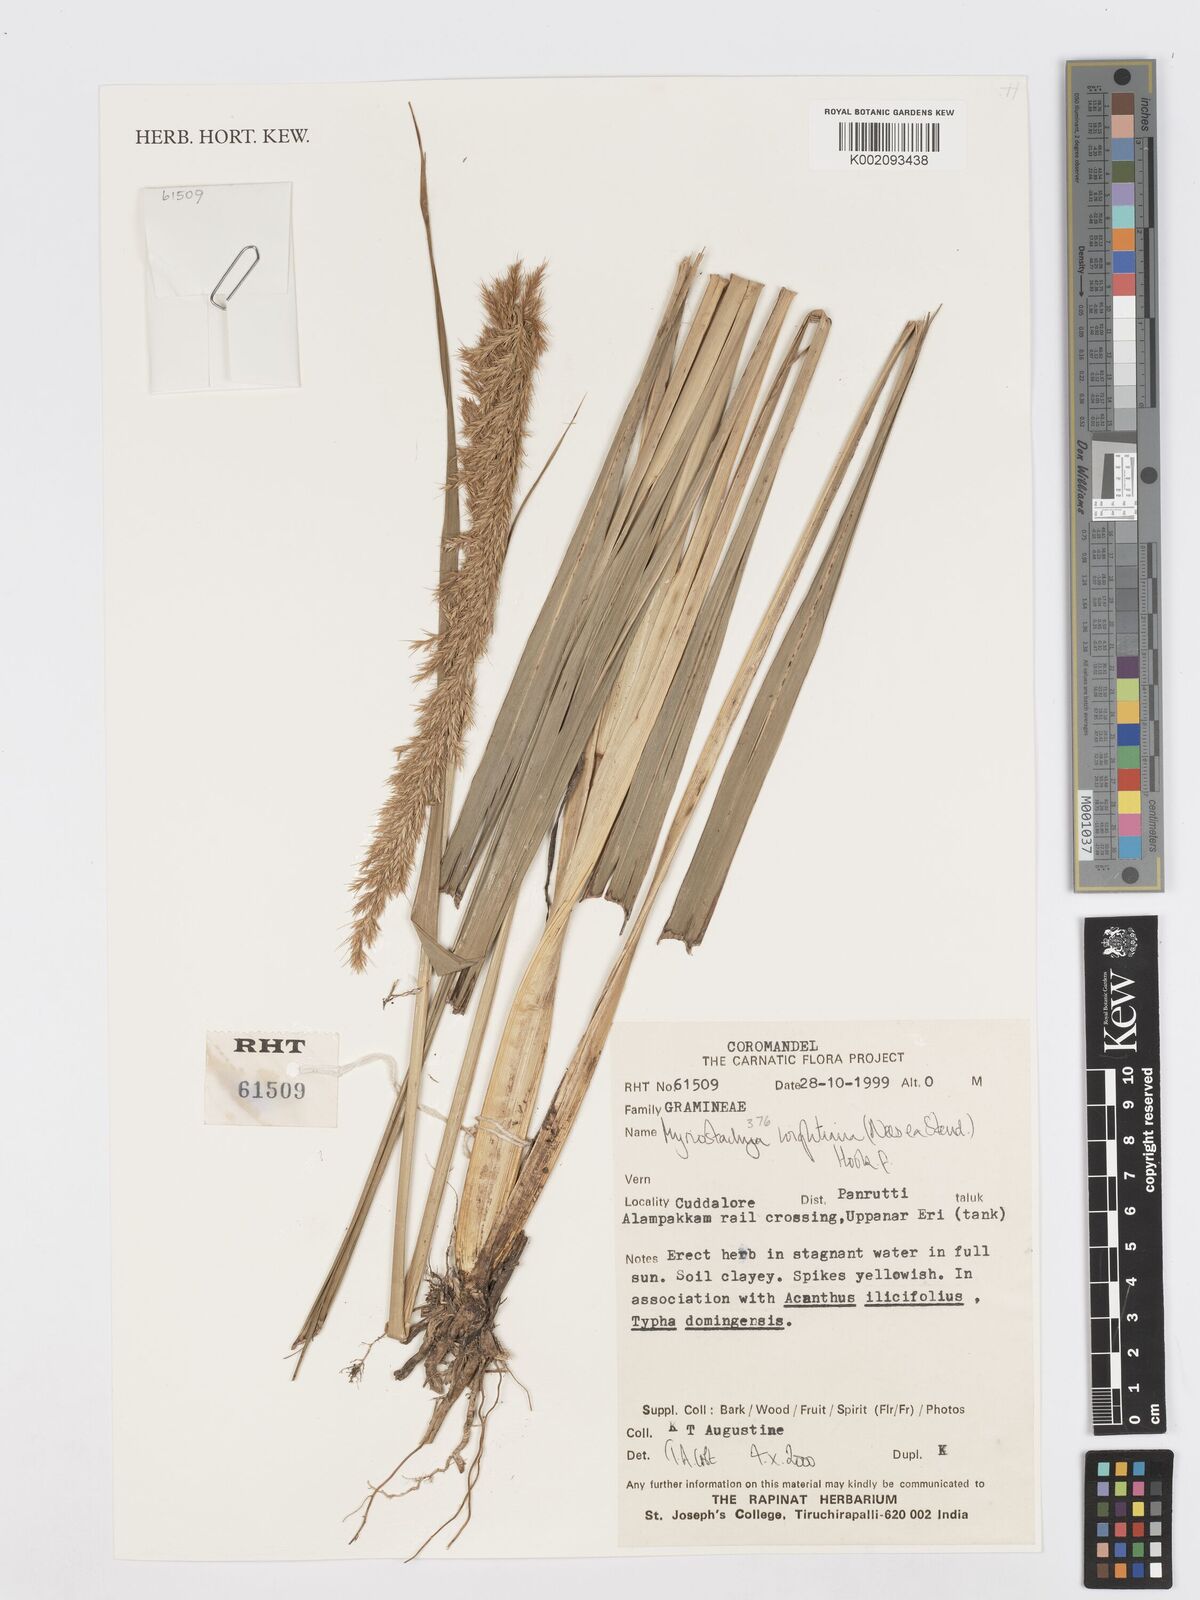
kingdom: Plantae
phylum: Tracheophyta
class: Liliopsida
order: Poales
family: Poaceae
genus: Myriostachya
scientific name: Myriostachya wightiana
